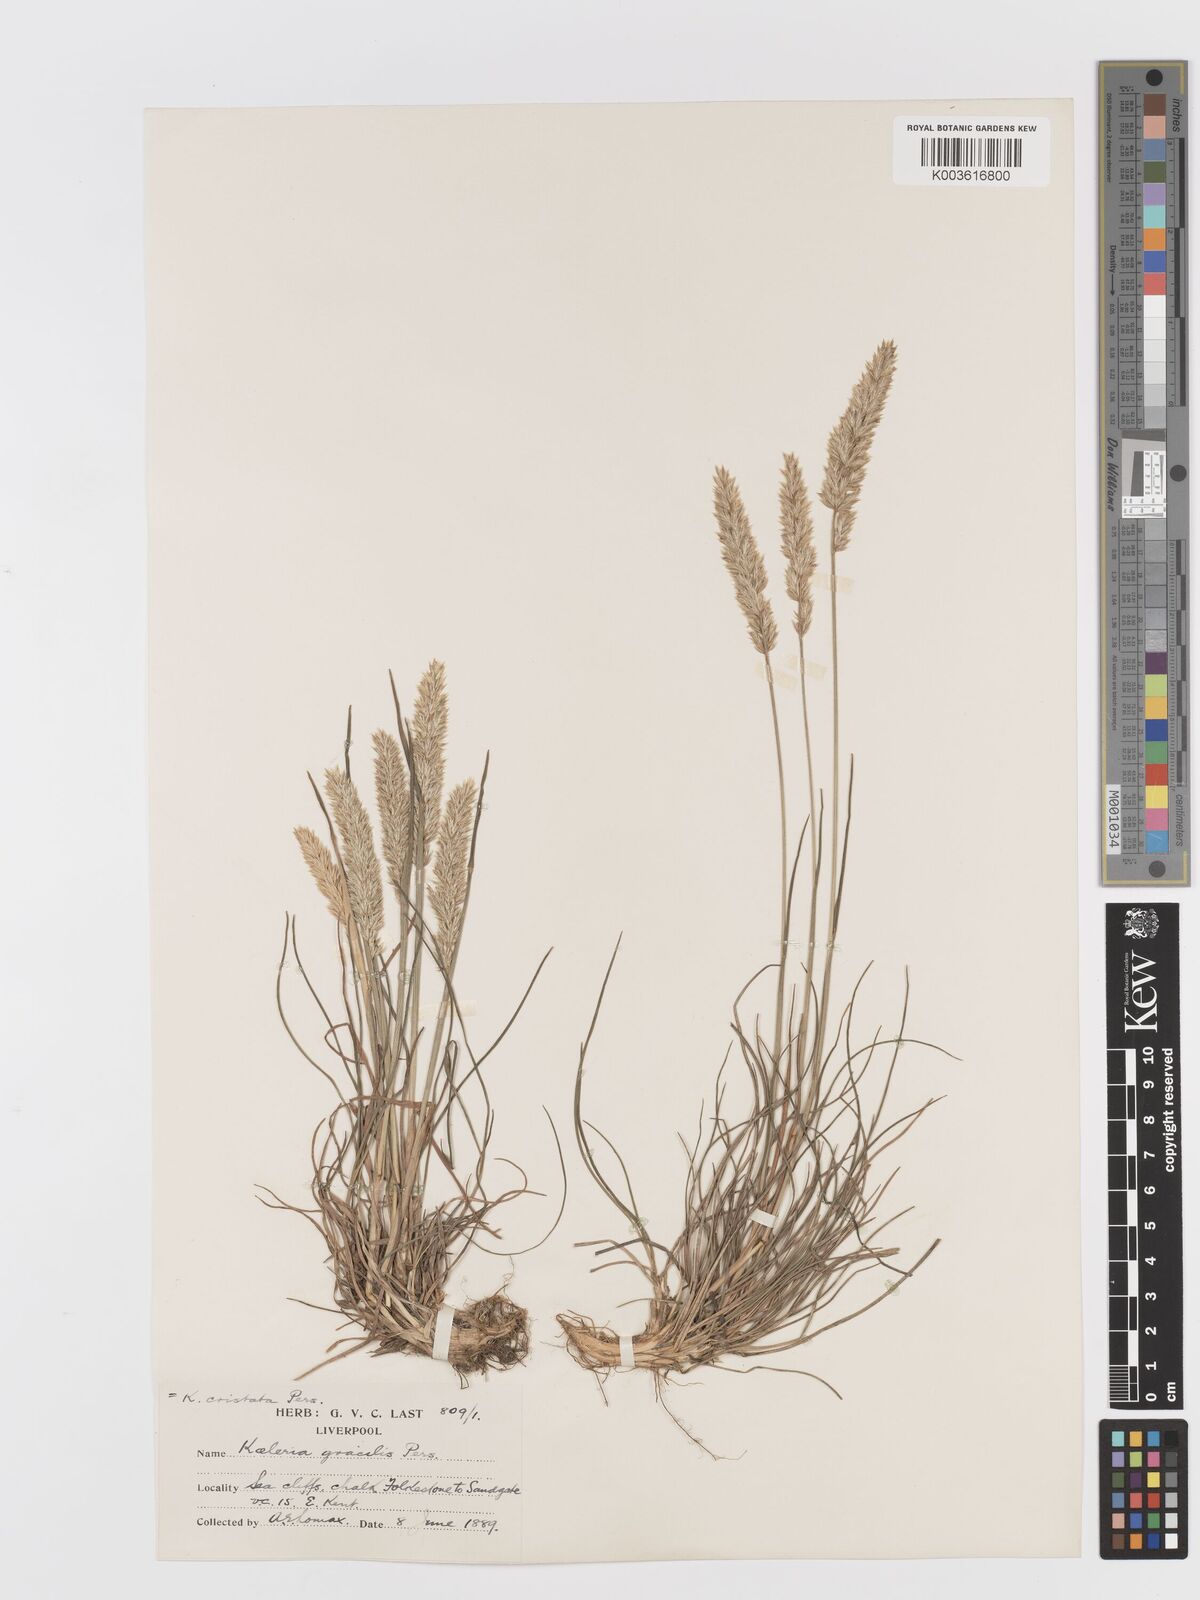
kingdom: Plantae
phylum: Tracheophyta
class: Liliopsida
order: Poales
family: Poaceae
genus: Koeleria
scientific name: Koeleria macrantha
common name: Crested hair-grass
